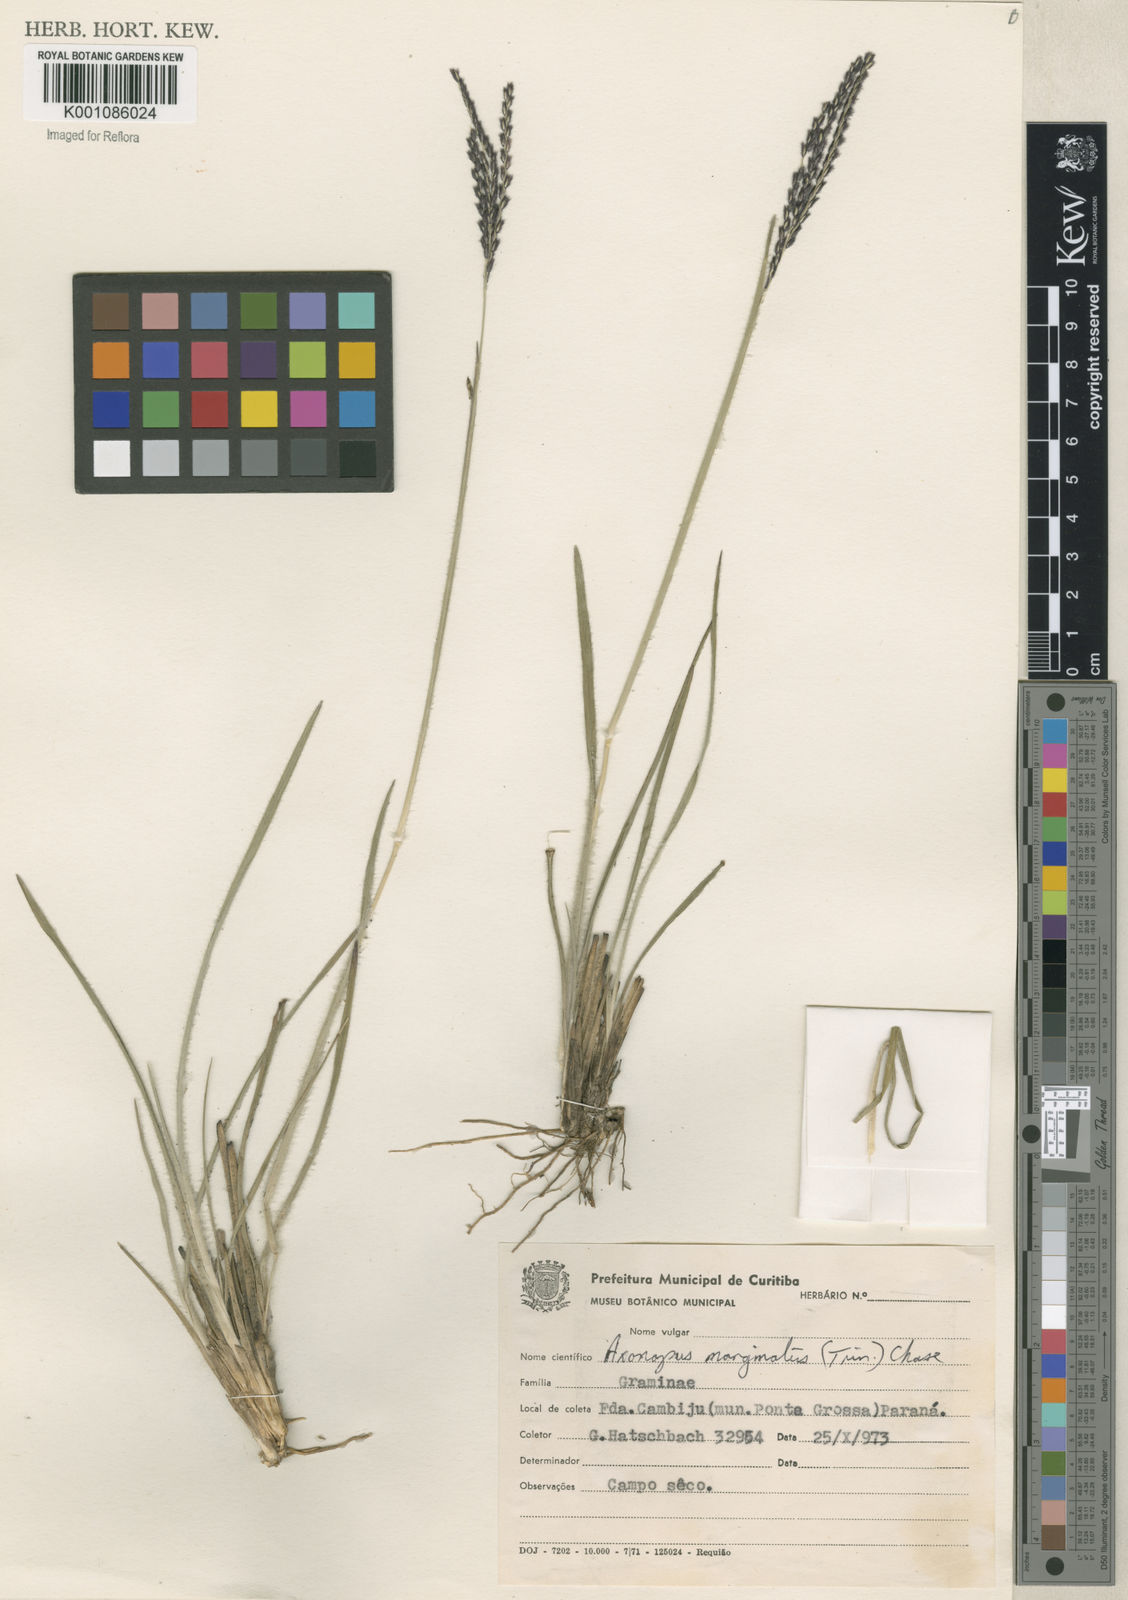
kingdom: Plantae
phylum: Tracheophyta
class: Liliopsida
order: Poales
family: Poaceae
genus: Axonopus
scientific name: Axonopus
